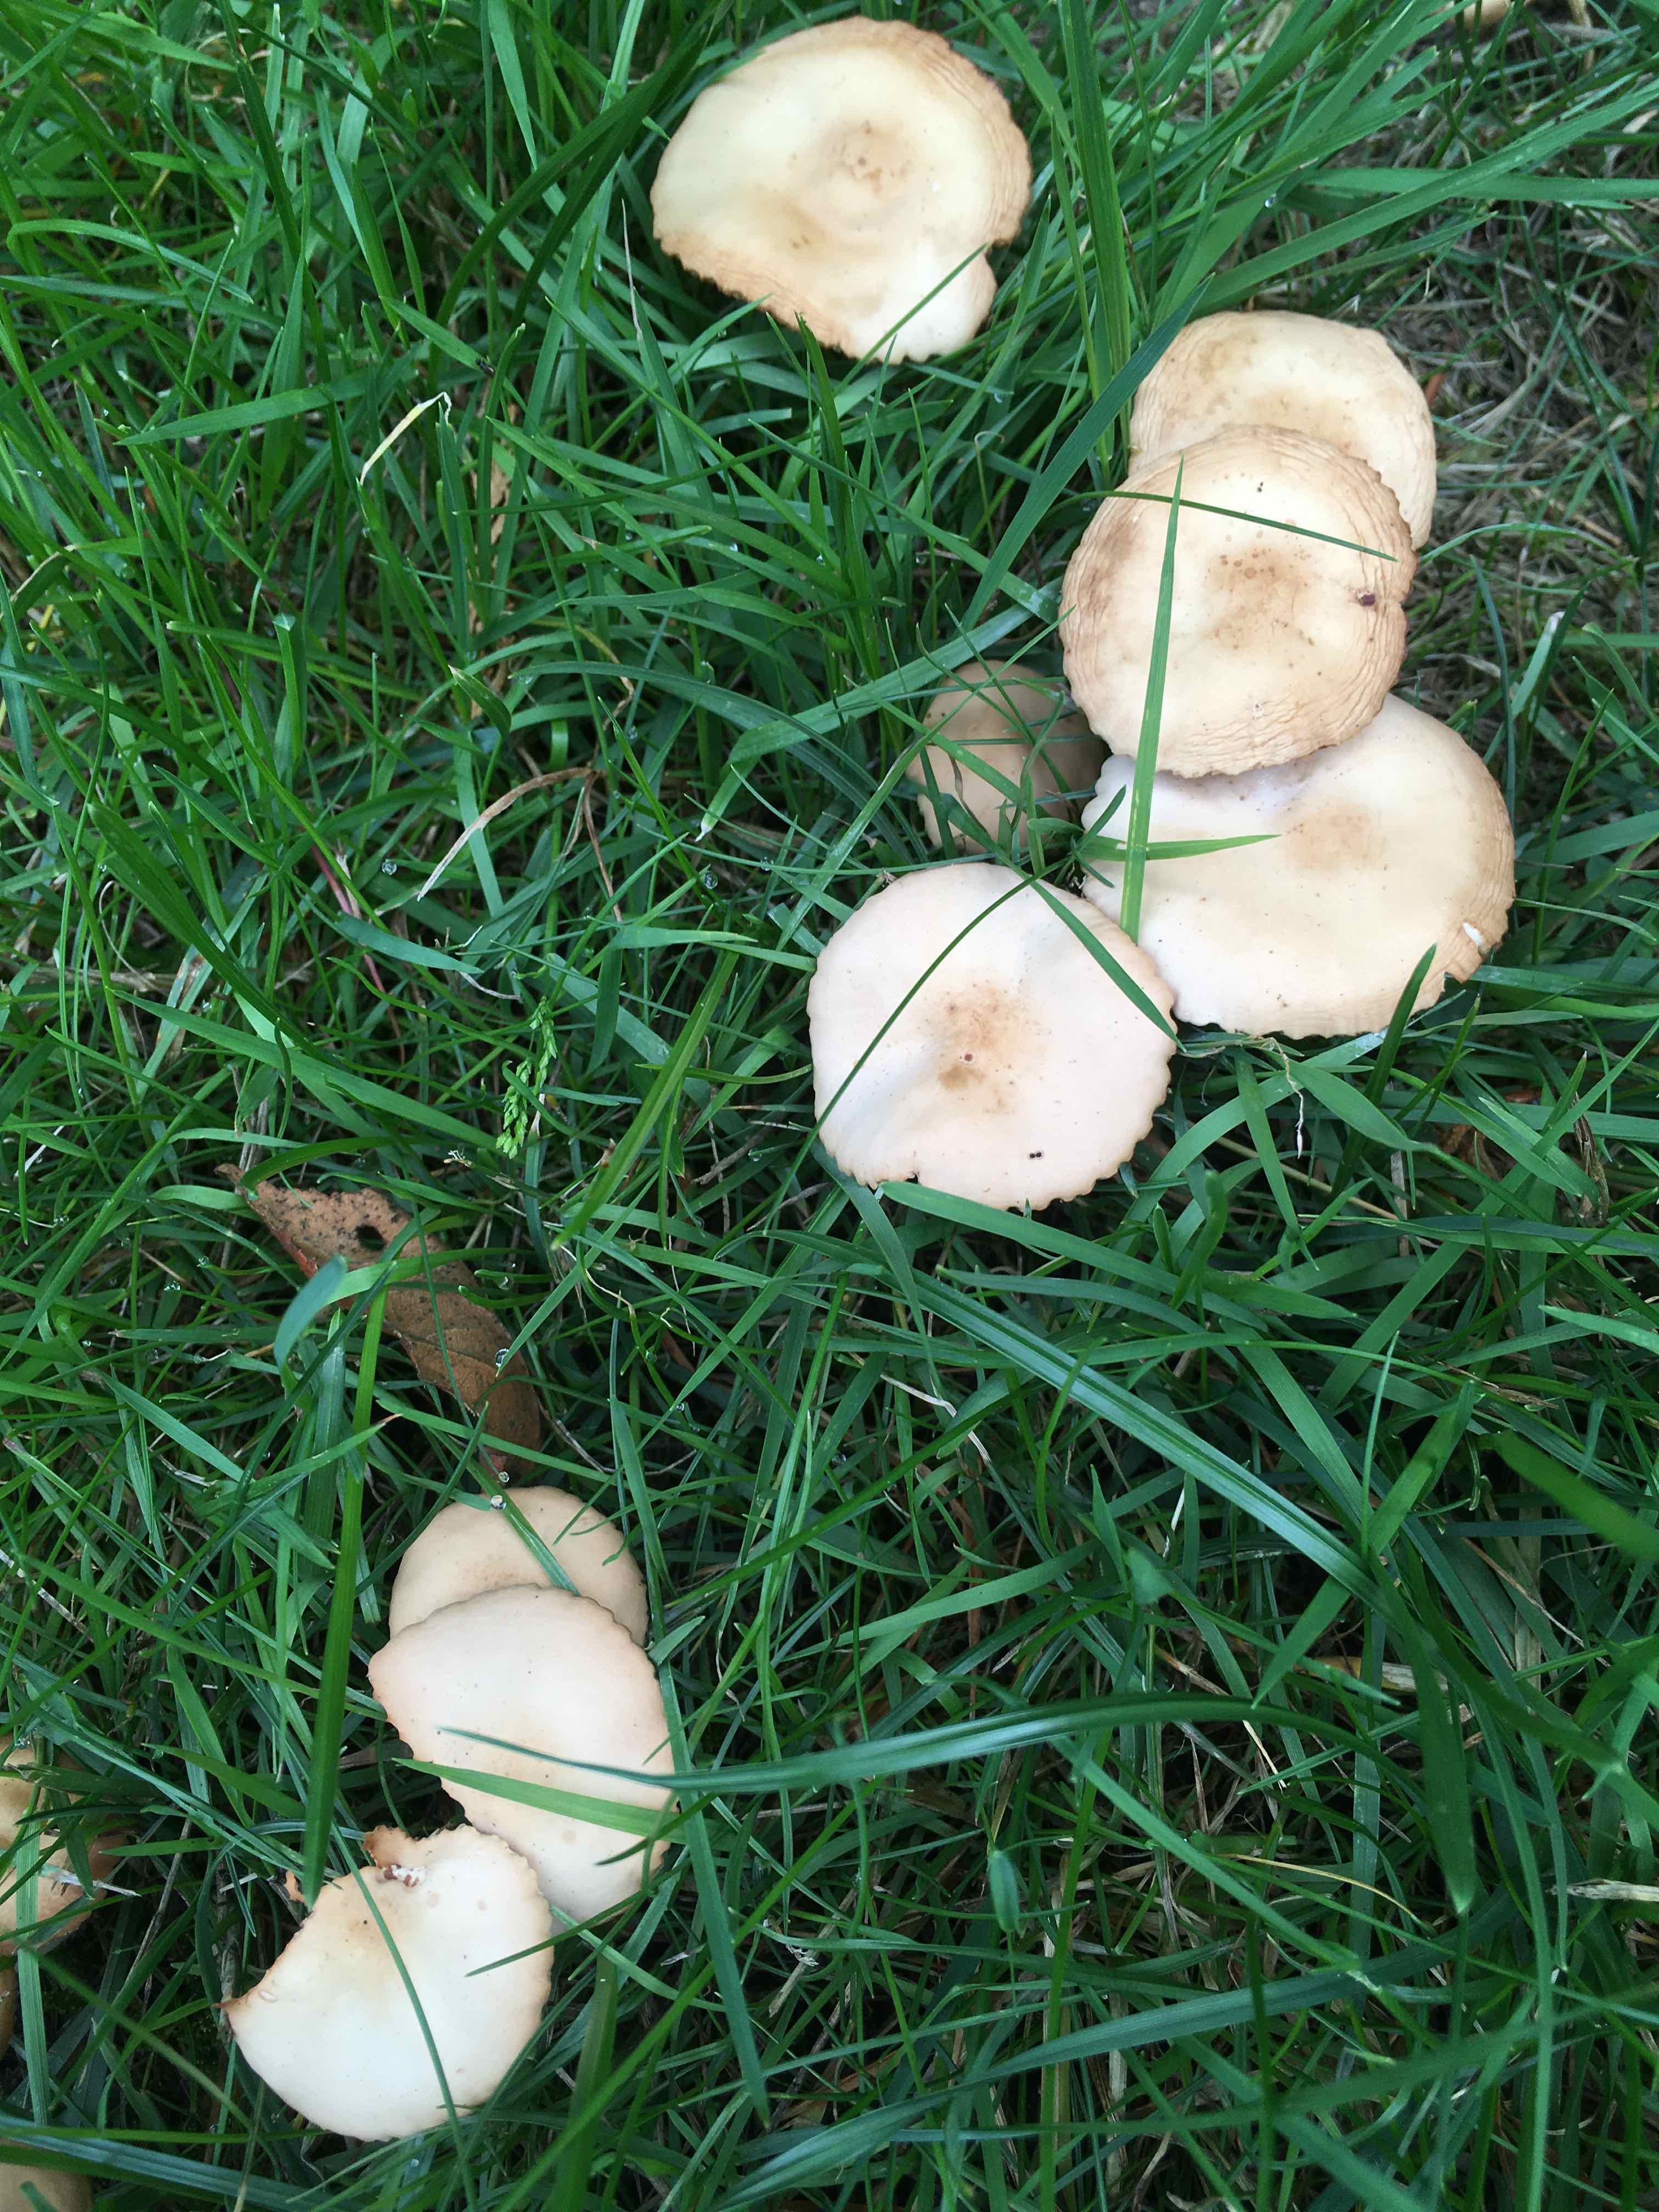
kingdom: Fungi
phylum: Basidiomycota
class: Agaricomycetes
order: Agaricales
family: Marasmiaceae
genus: Marasmius
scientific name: Marasmius oreades
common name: elledans-bruskhat
